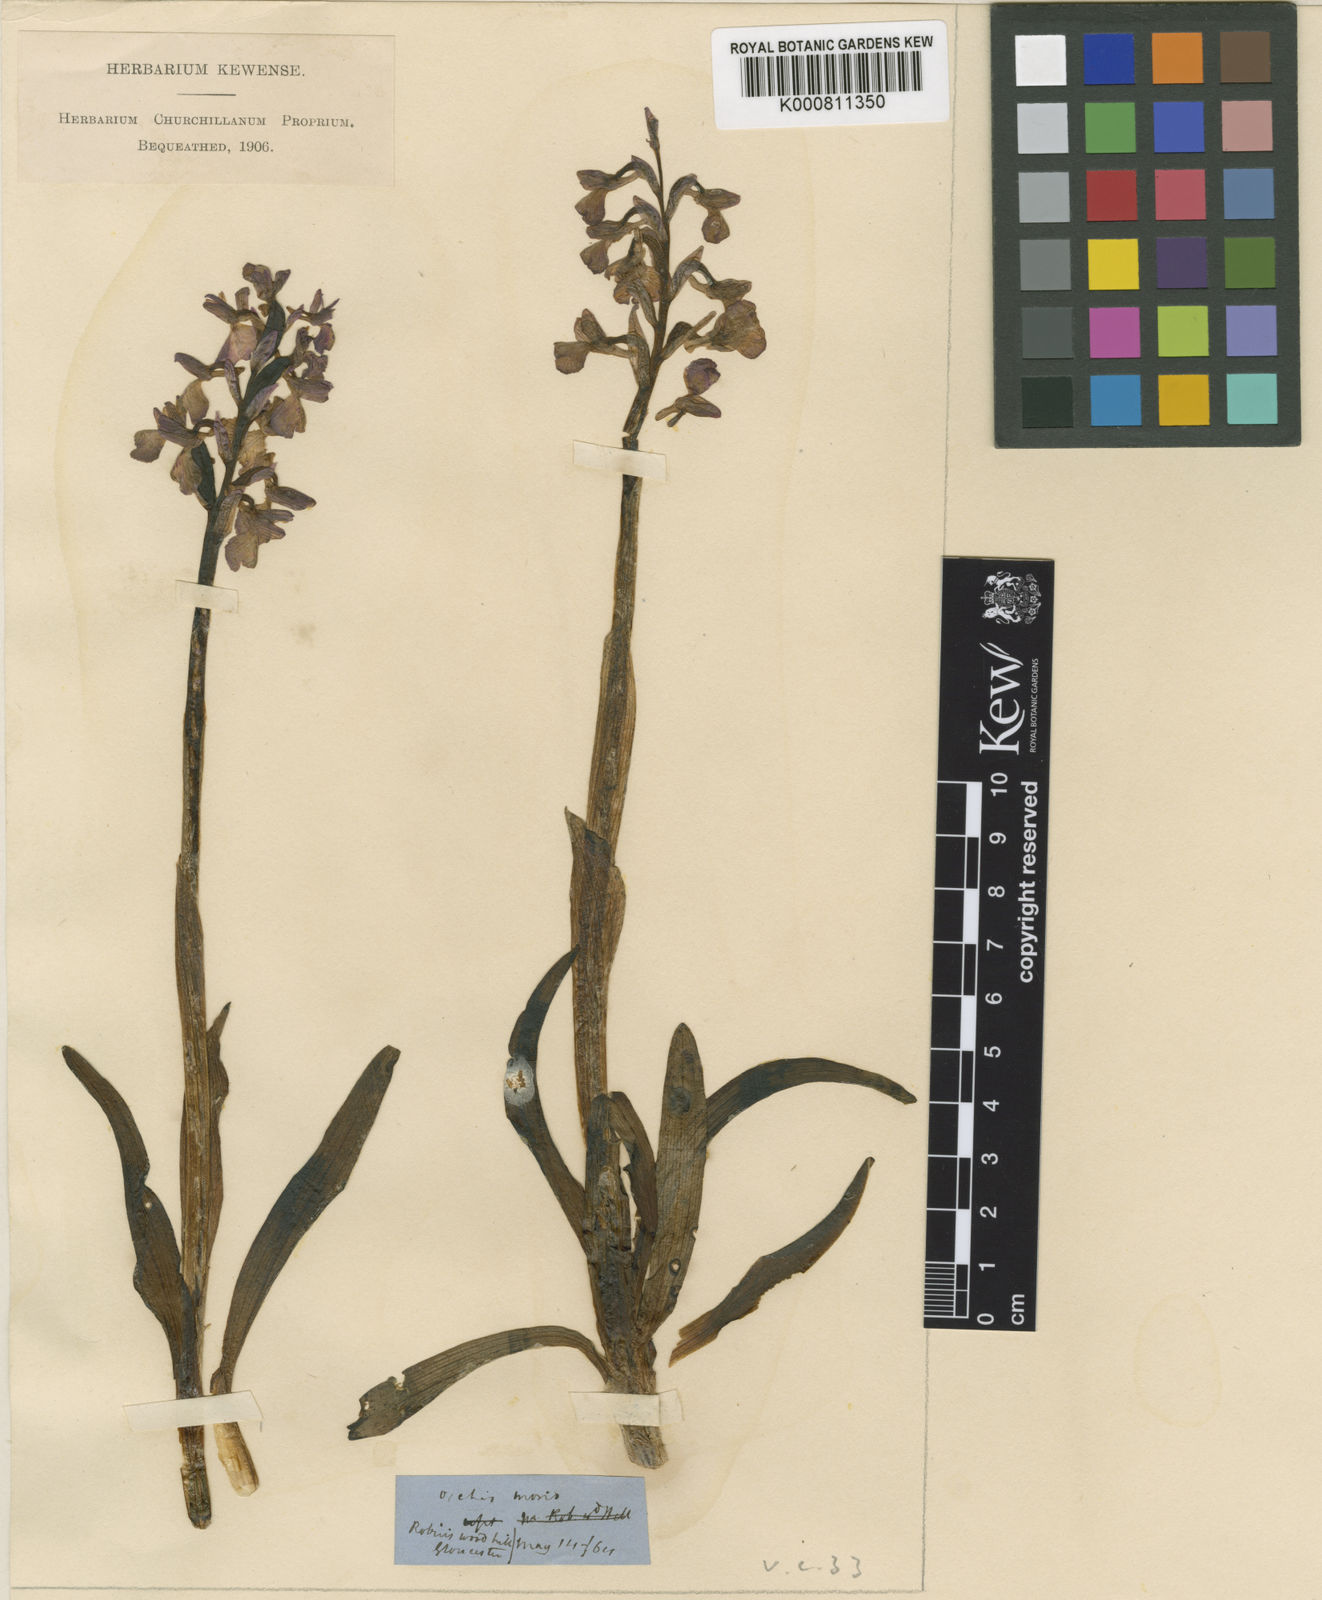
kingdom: Plantae
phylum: Tracheophyta
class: Liliopsida
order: Asparagales
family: Orchidaceae
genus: Anacamptis
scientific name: Anacamptis morio
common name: Green-winged orchid
